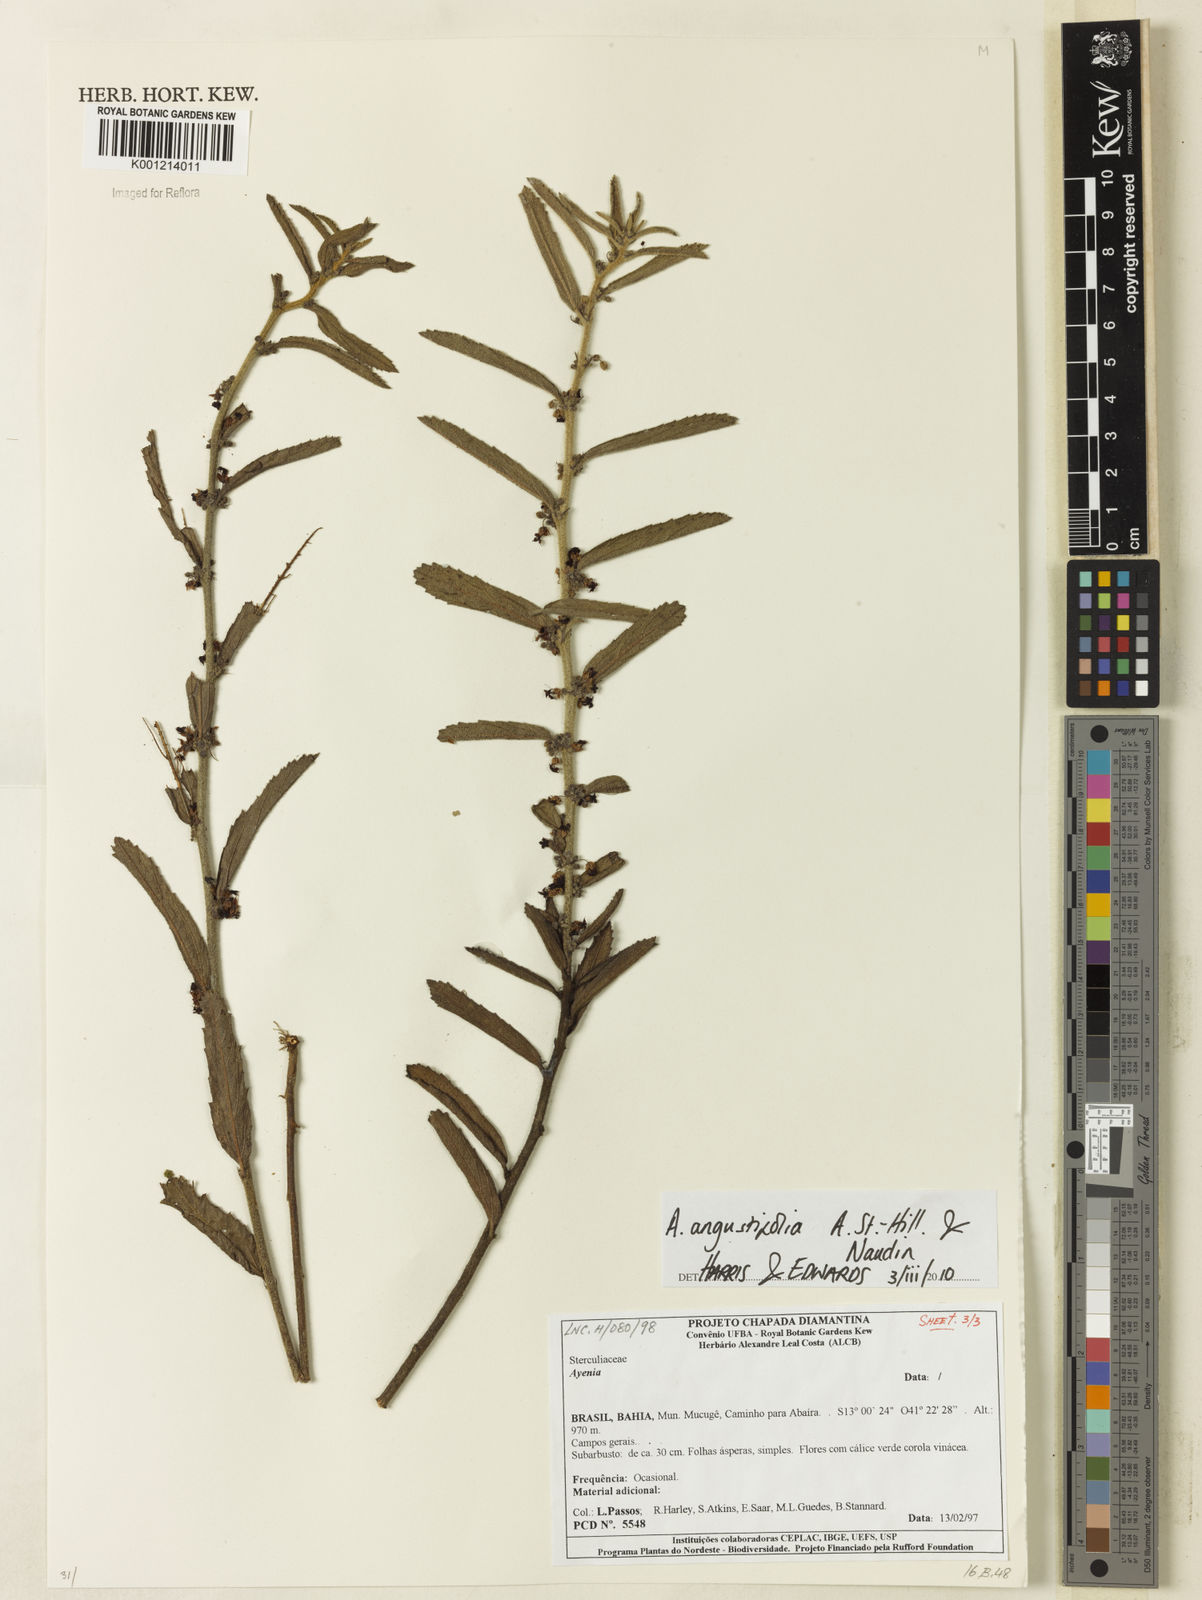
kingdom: Plantae
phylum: Tracheophyta
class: Magnoliopsida
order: Malvales
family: Malvaceae
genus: Ayenia
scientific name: Ayenia angustifolia
